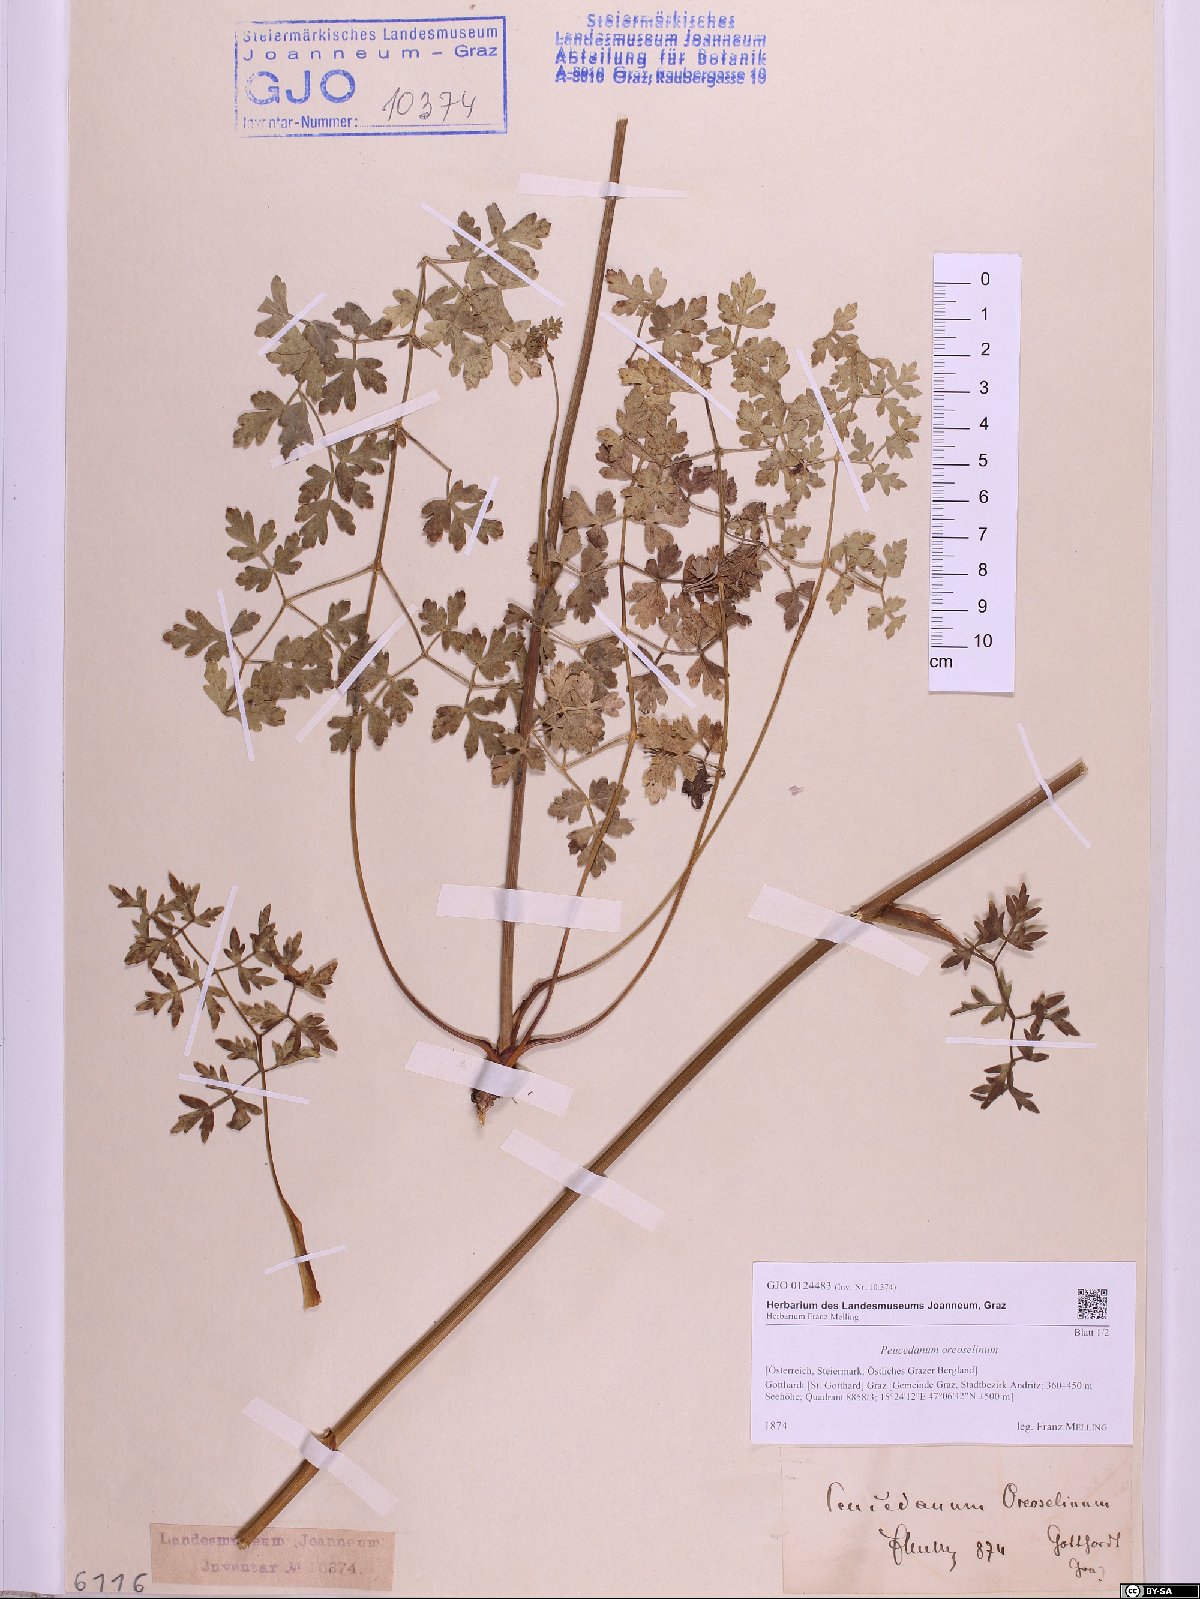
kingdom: Plantae
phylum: Tracheophyta
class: Magnoliopsida
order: Apiales
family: Apiaceae
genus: Oreoselinum
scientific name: Oreoselinum nigrum
